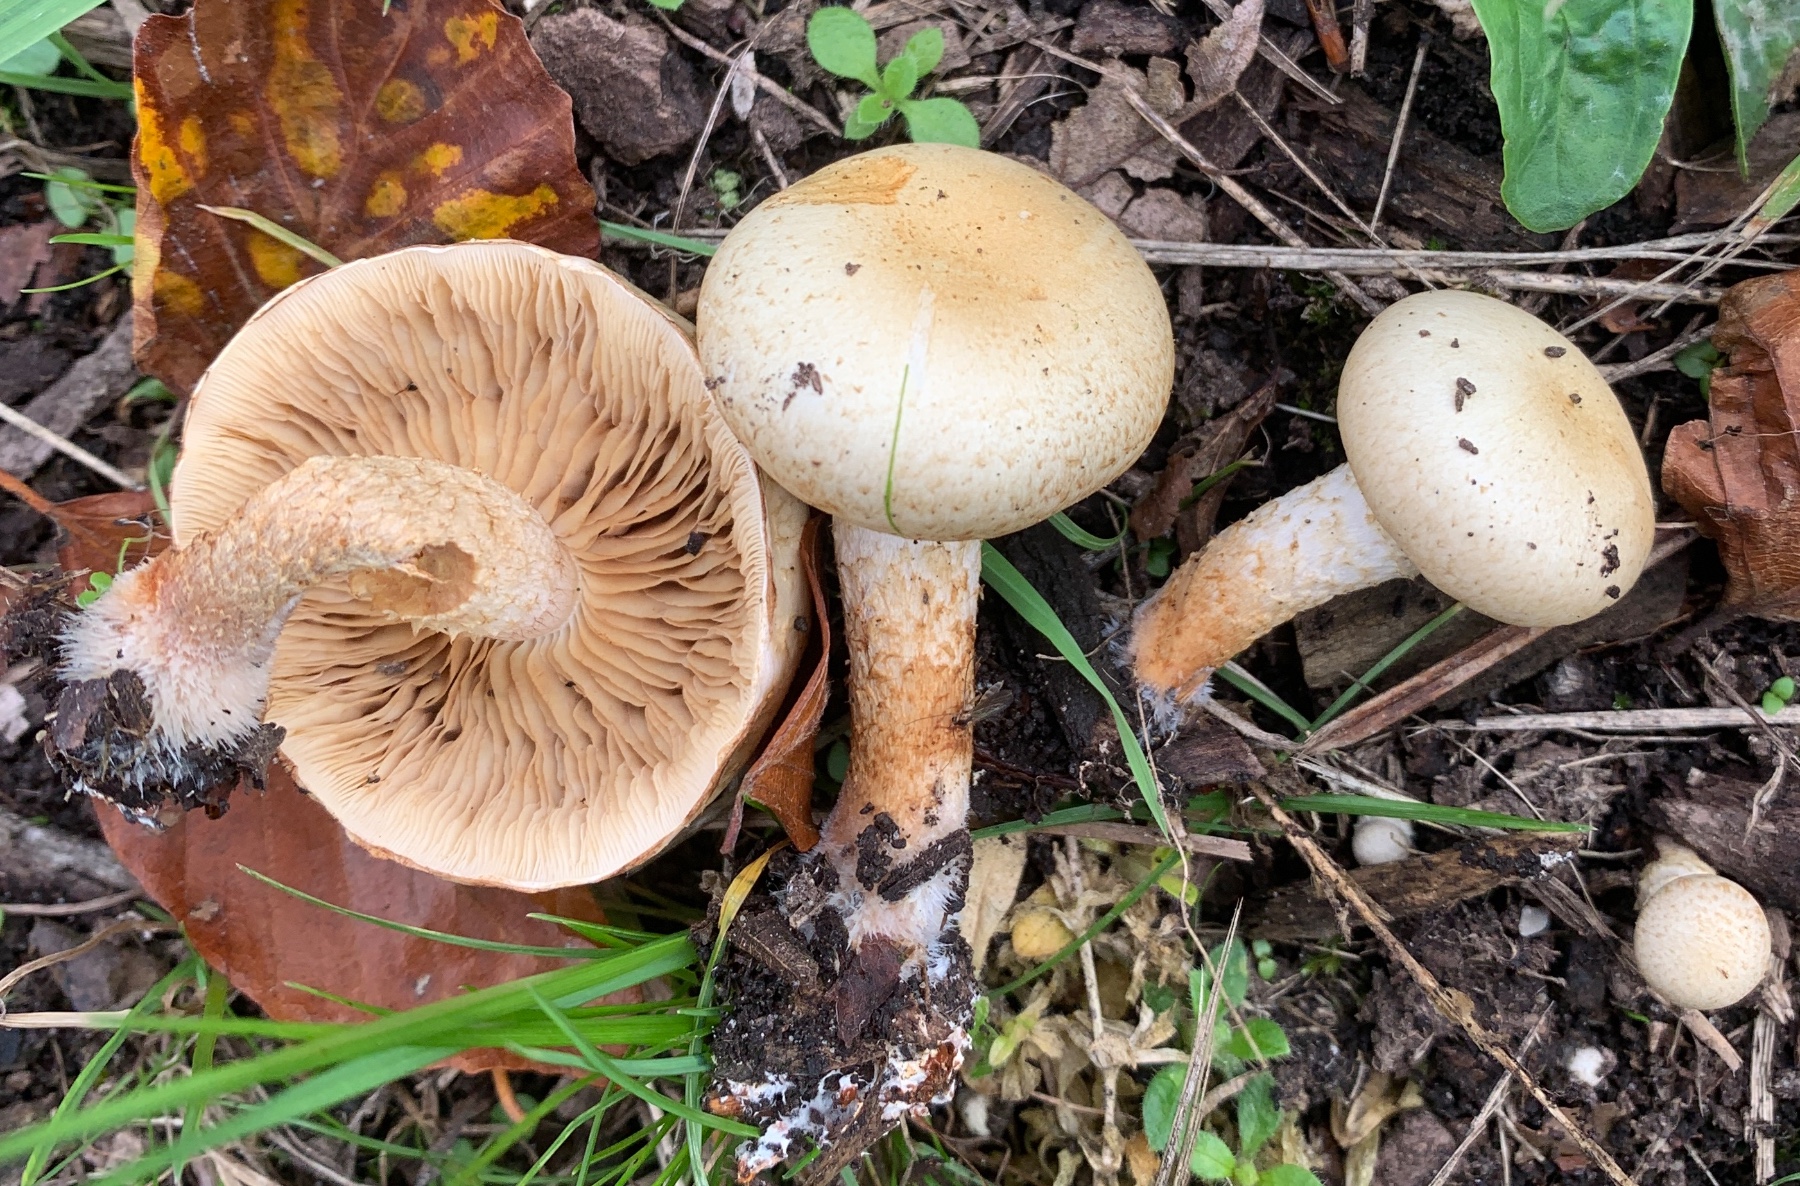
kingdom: Fungi
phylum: Basidiomycota
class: Agaricomycetes
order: Agaricales
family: Strophariaceae
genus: Pholiota
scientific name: Pholiota gummosa
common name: grøngul skælhat
